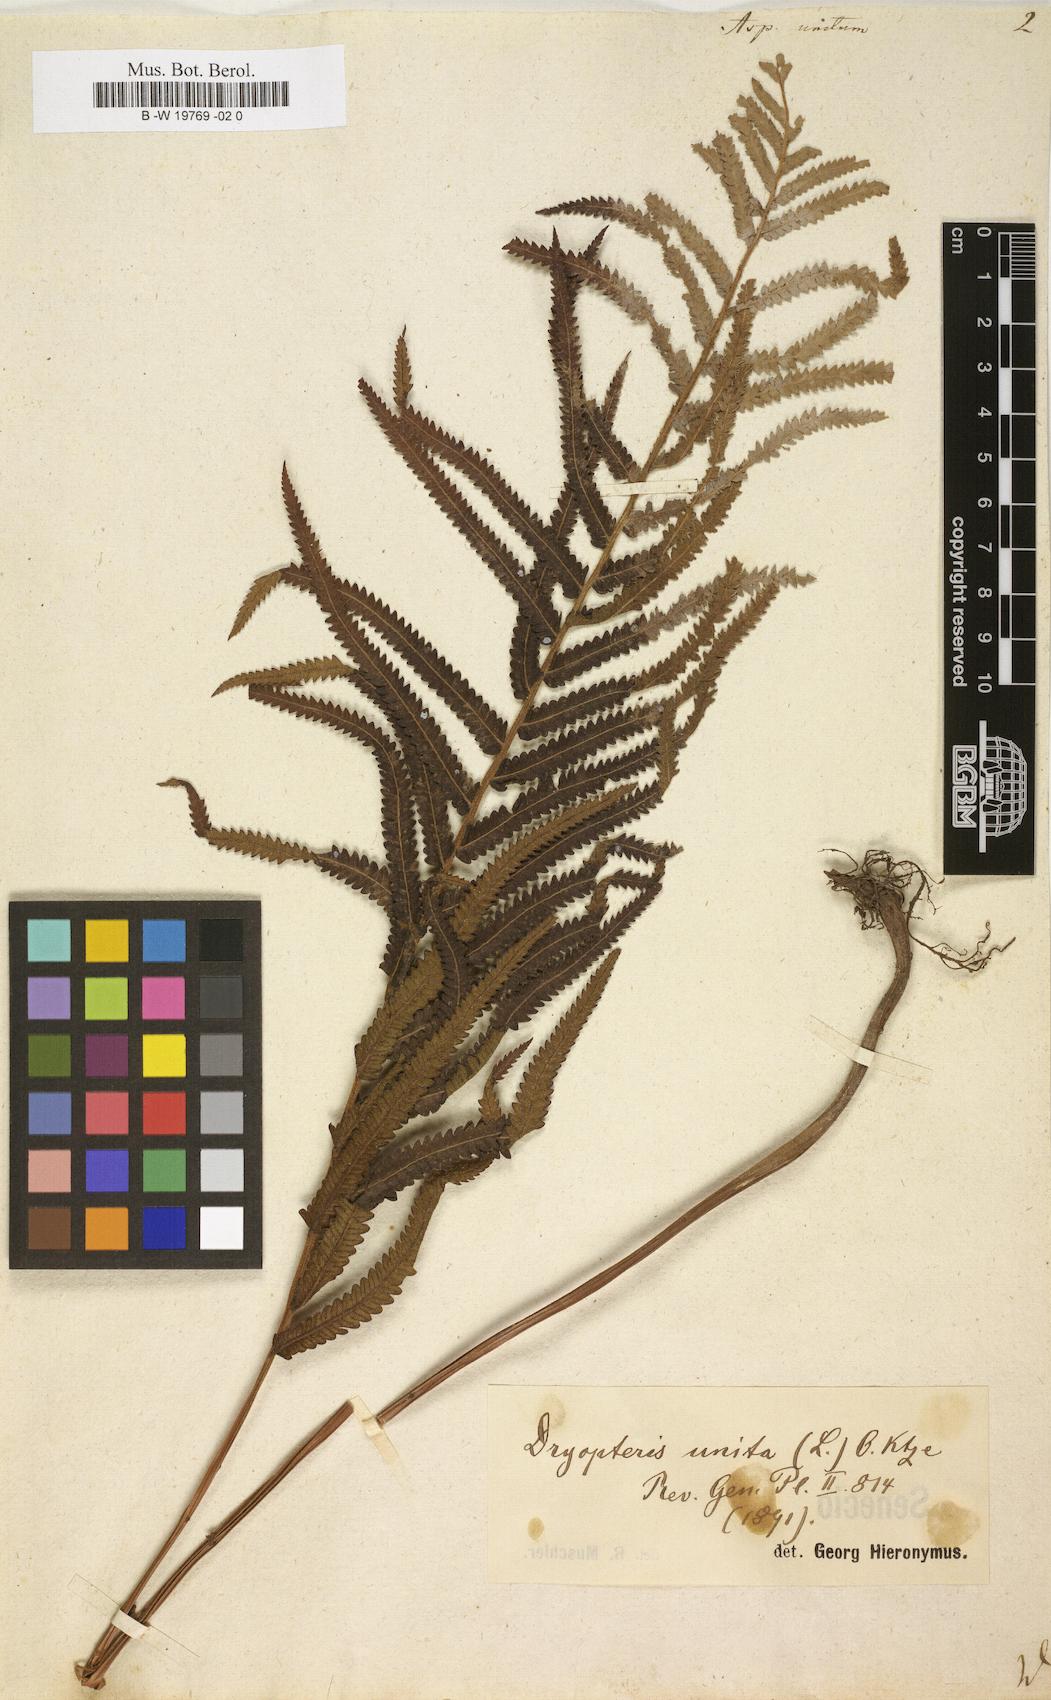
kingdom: Plantae
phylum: Tracheophyta
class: Polypodiopsida
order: Polypodiales
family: Thelypteridaceae
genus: Cyclosorus
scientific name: Cyclosorus interruptus
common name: Neke fern
